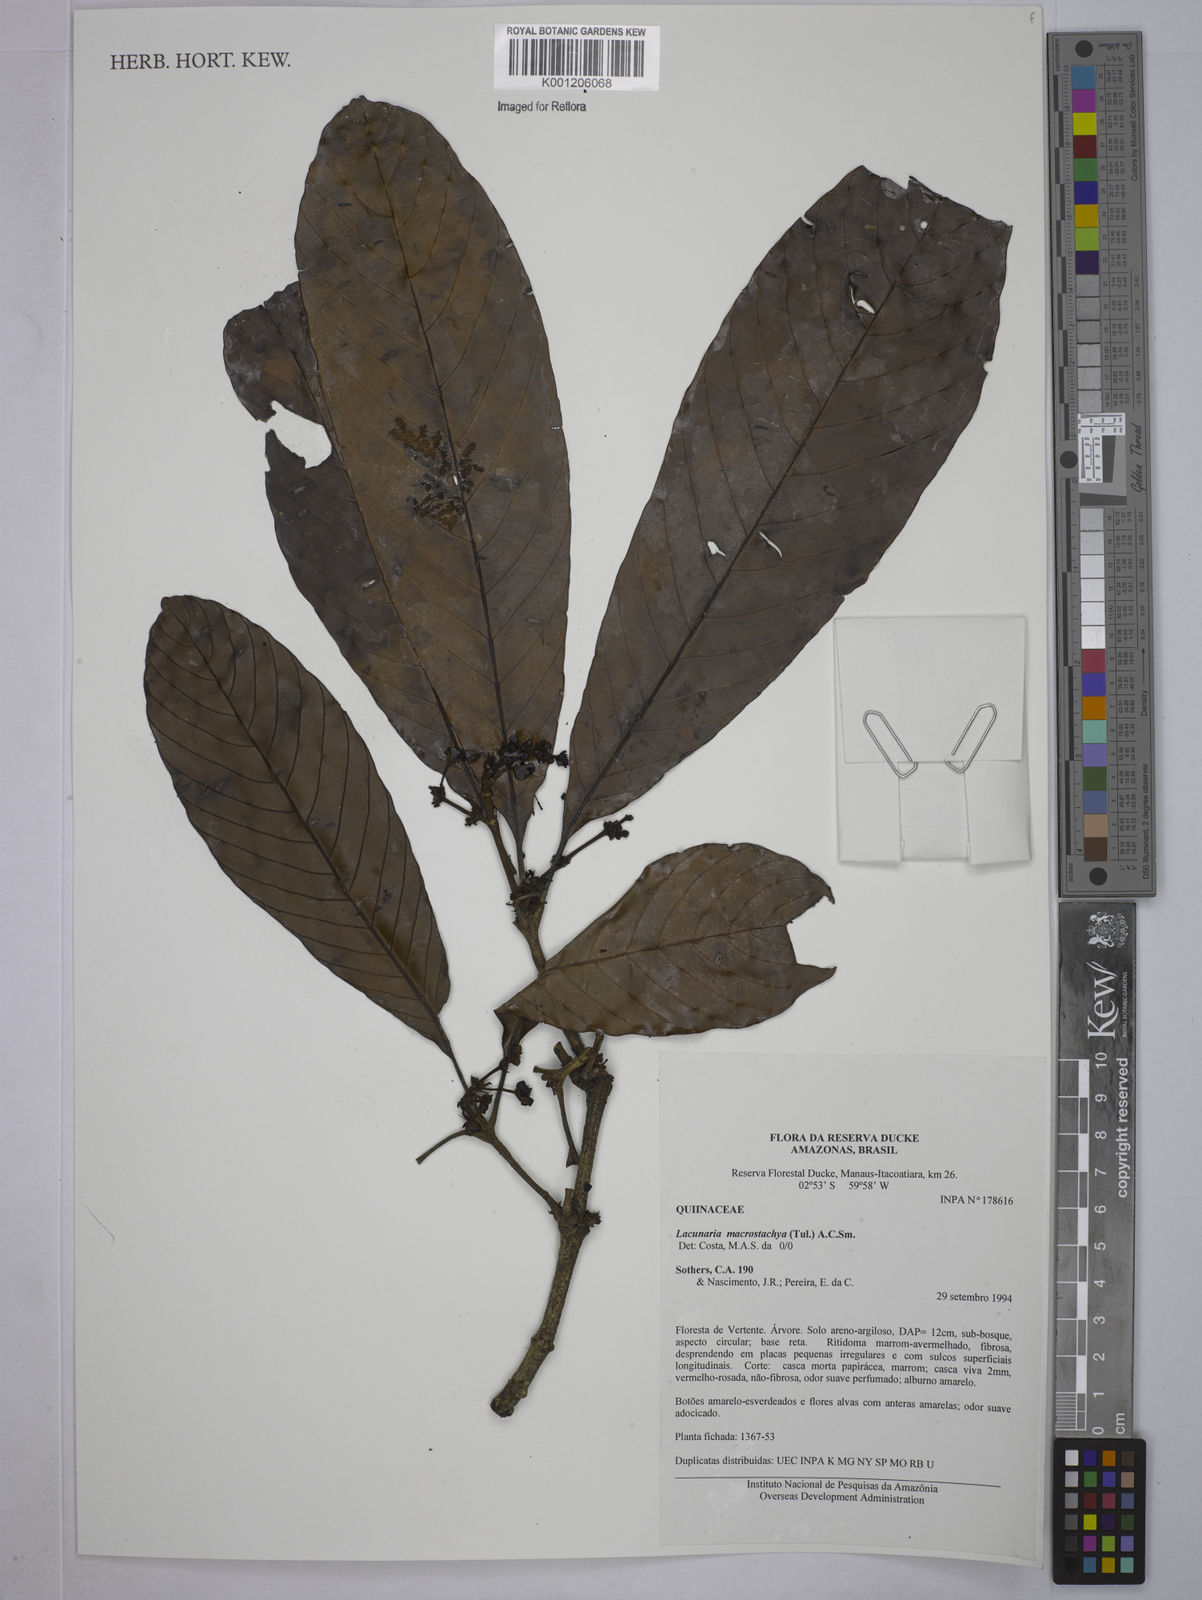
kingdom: Plantae
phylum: Tracheophyta
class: Magnoliopsida
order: Malpighiales
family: Quiinaceae
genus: Lacunaria
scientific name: Lacunaria macrostachya
